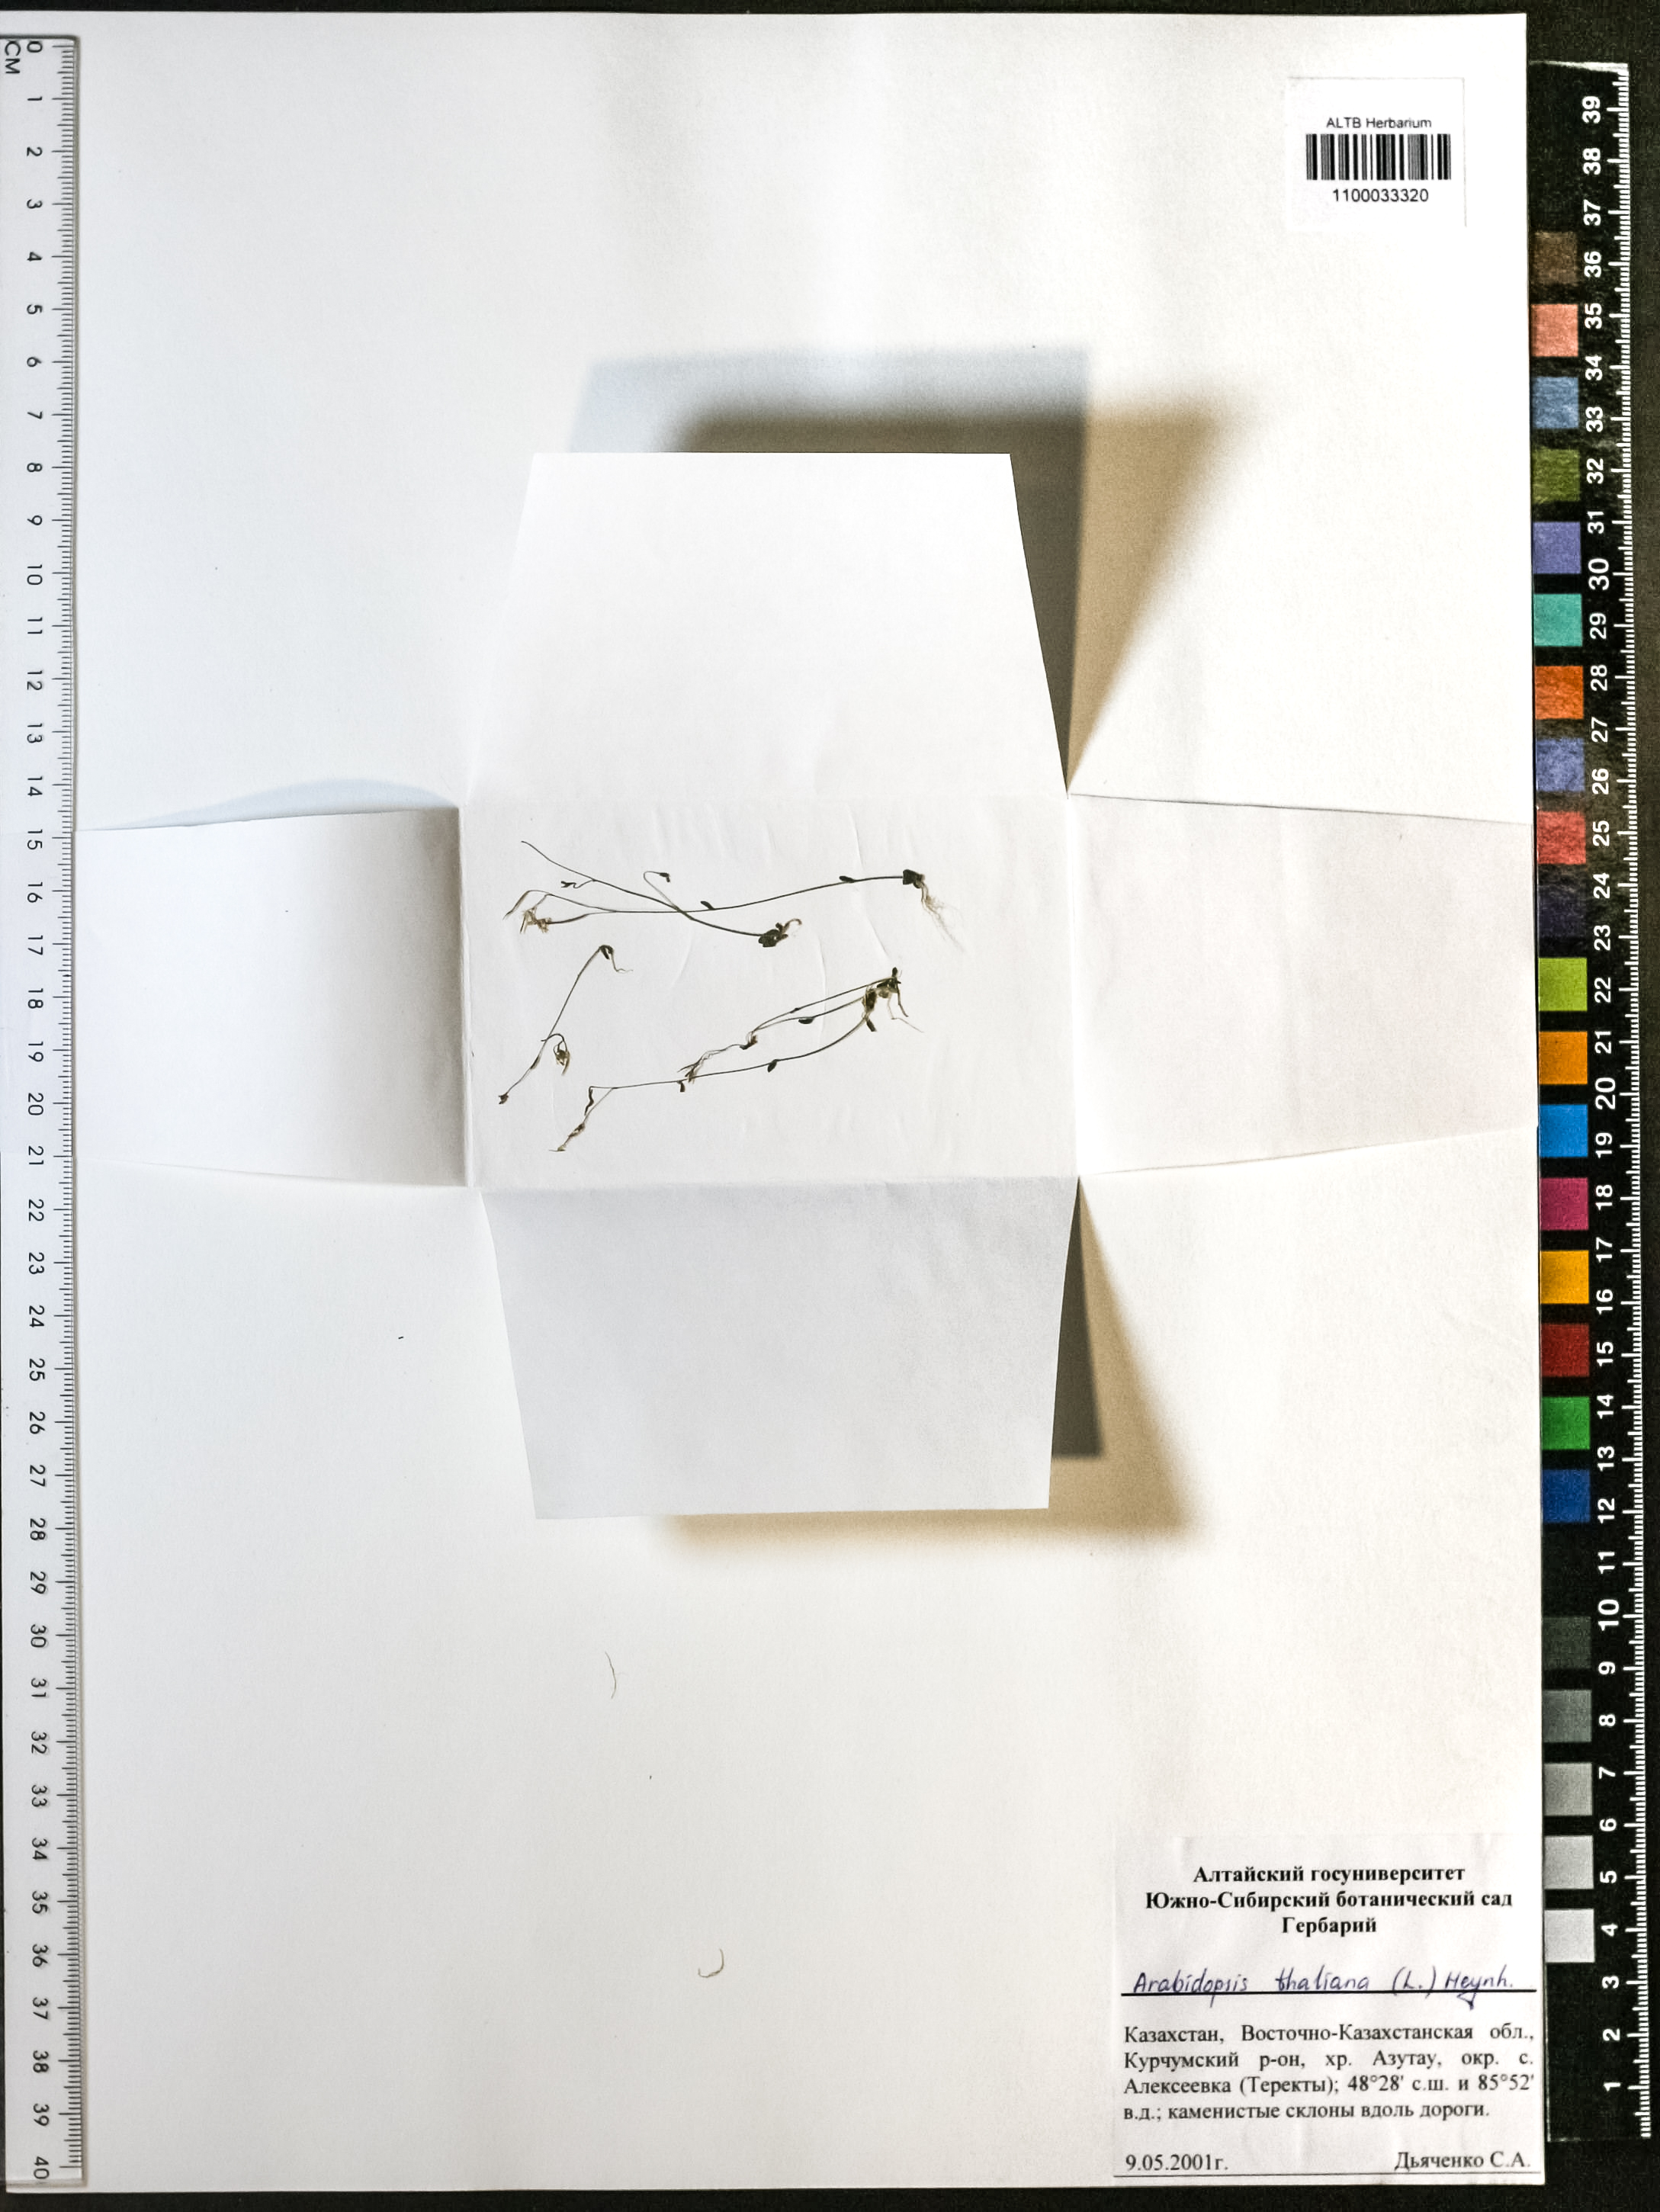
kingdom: Plantae
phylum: Tracheophyta
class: Magnoliopsida
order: Brassicales
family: Brassicaceae
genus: Arabidopsis
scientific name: Arabidopsis thaliana
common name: Thale cress
